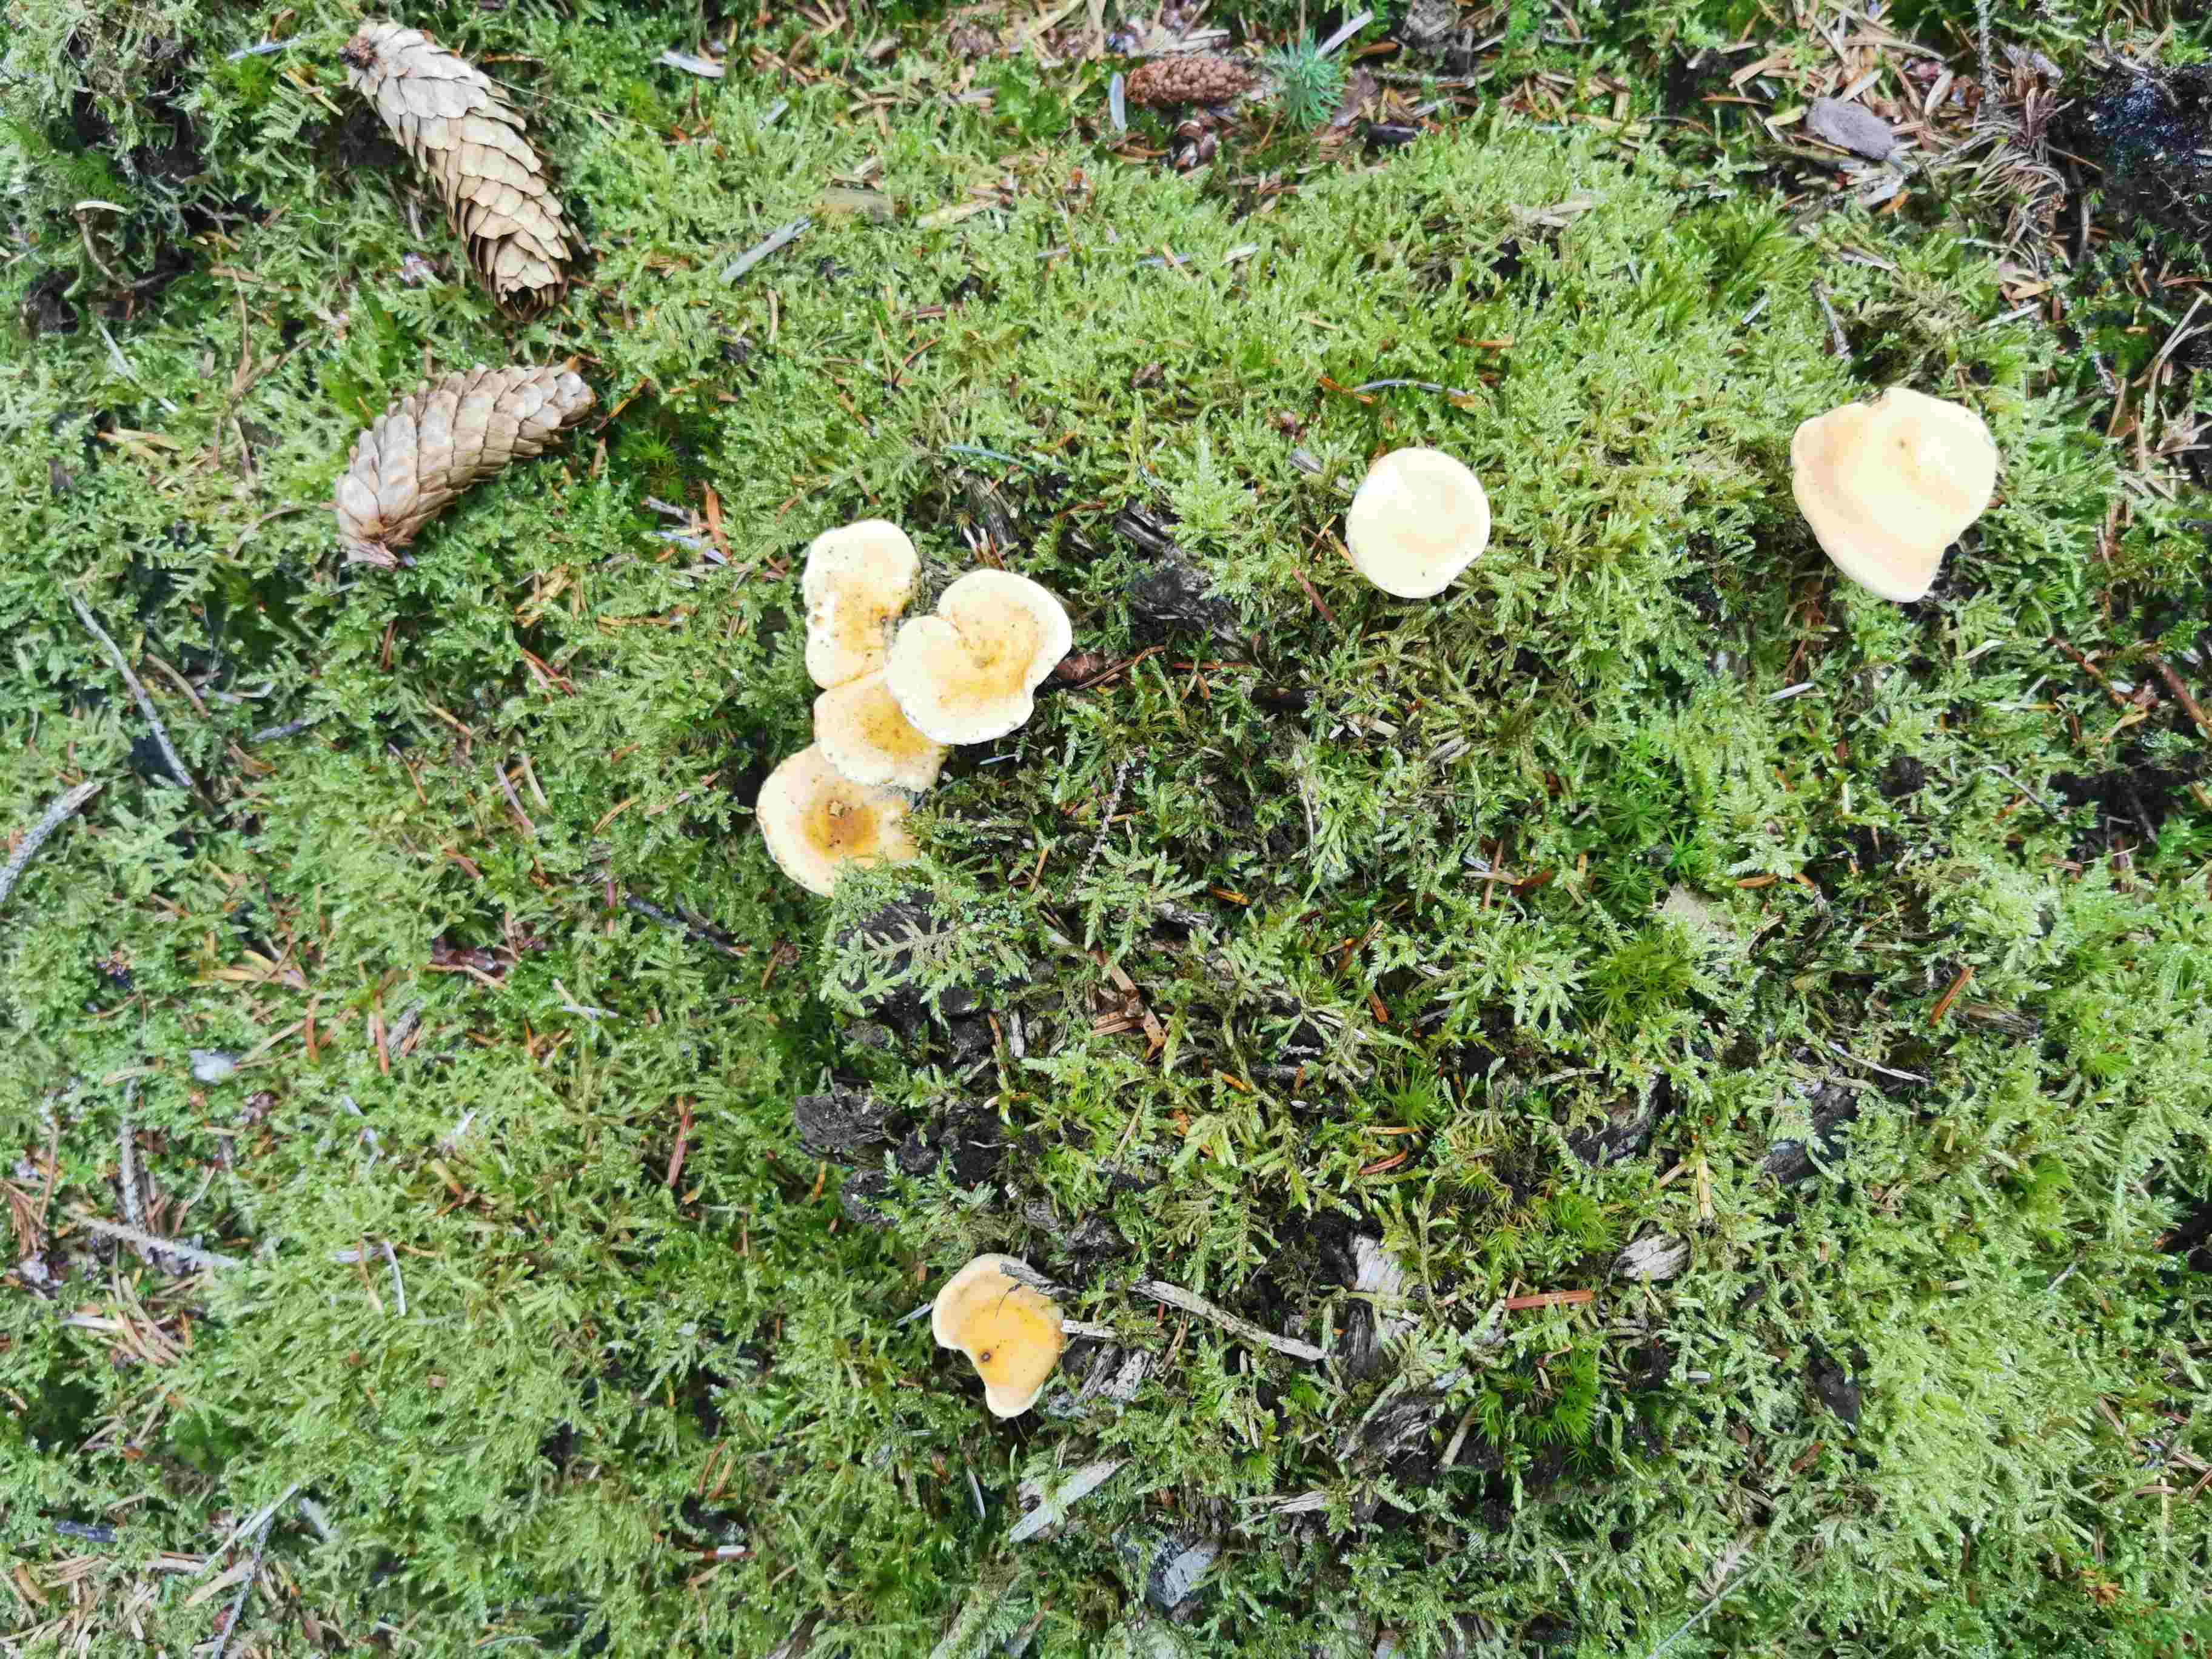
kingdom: Fungi
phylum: Basidiomycota
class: Agaricomycetes
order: Boletales
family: Hygrophoropsidaceae
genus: Hygrophoropsis
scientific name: Hygrophoropsis aurantiaca
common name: almindelig orangekantarel
